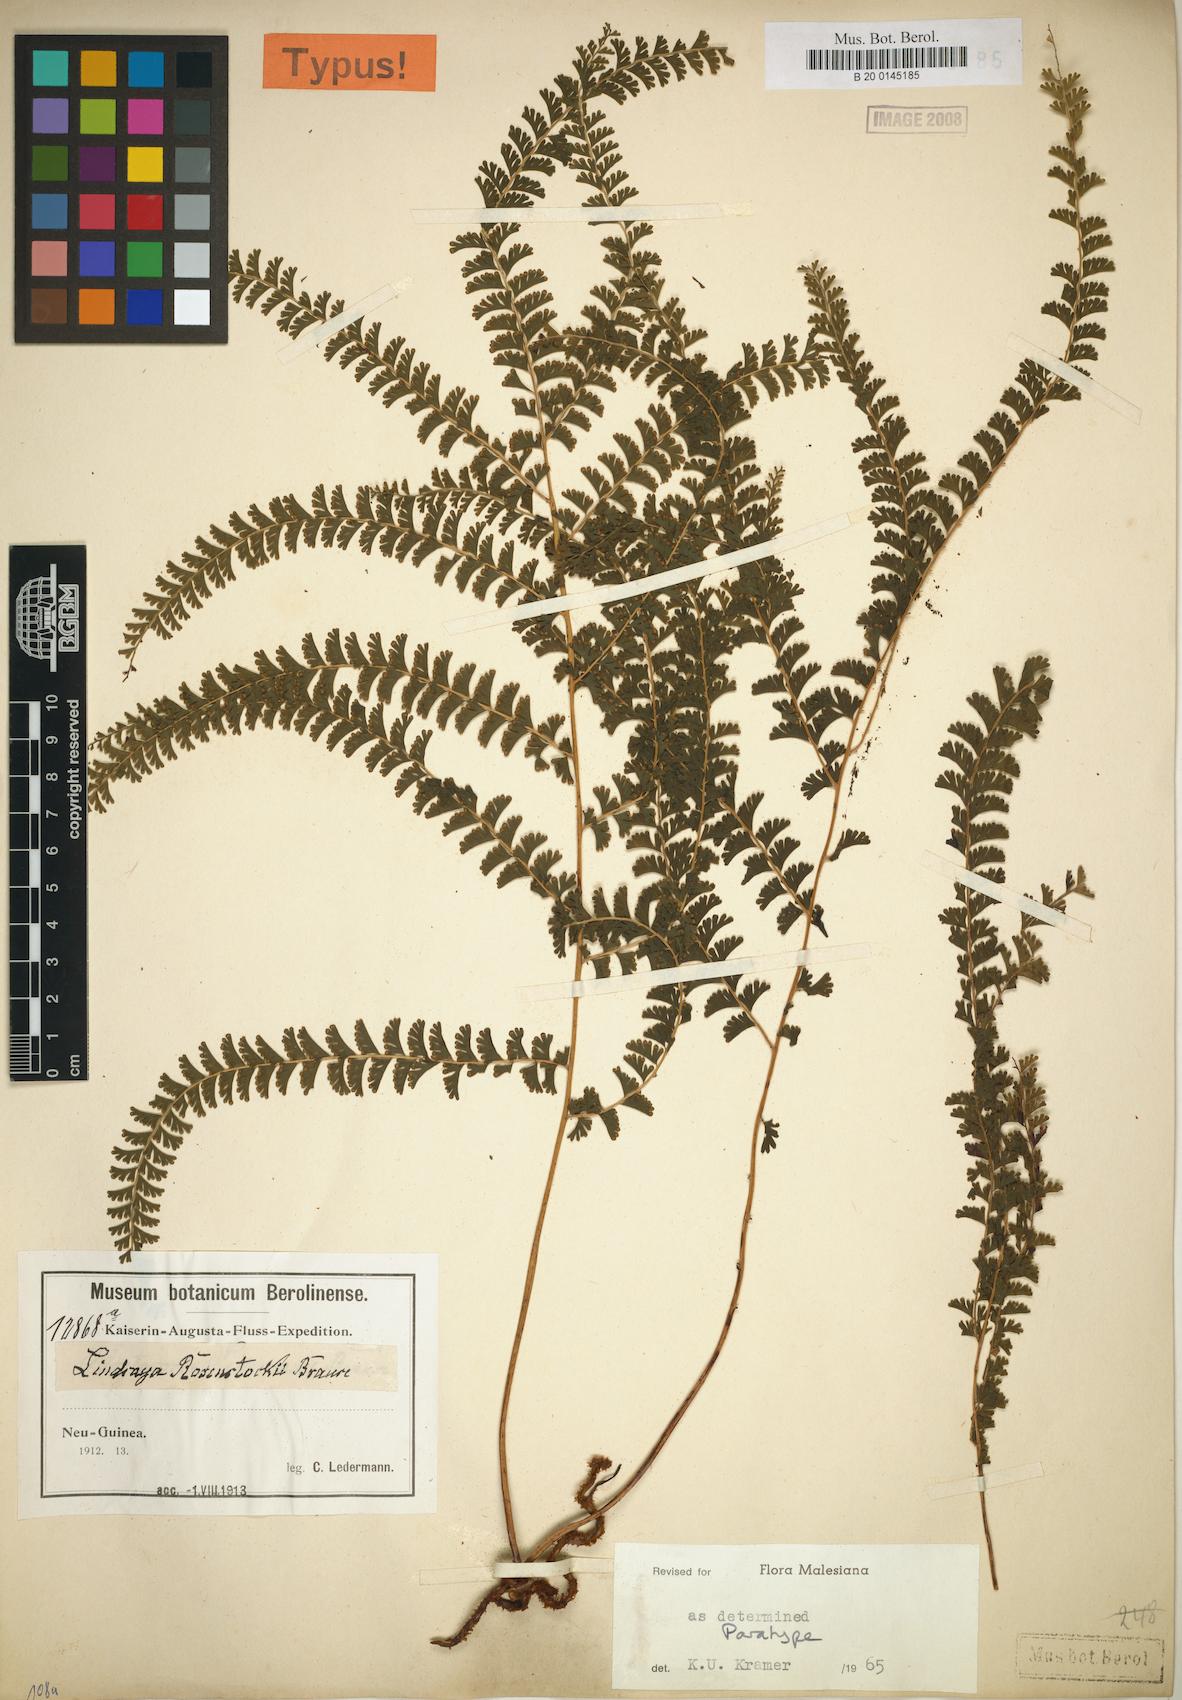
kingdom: Plantae
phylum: Tracheophyta
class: Polypodiopsida
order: Polypodiales
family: Lindsaeaceae
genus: Lindsaea
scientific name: Lindsaea rosenstockii
